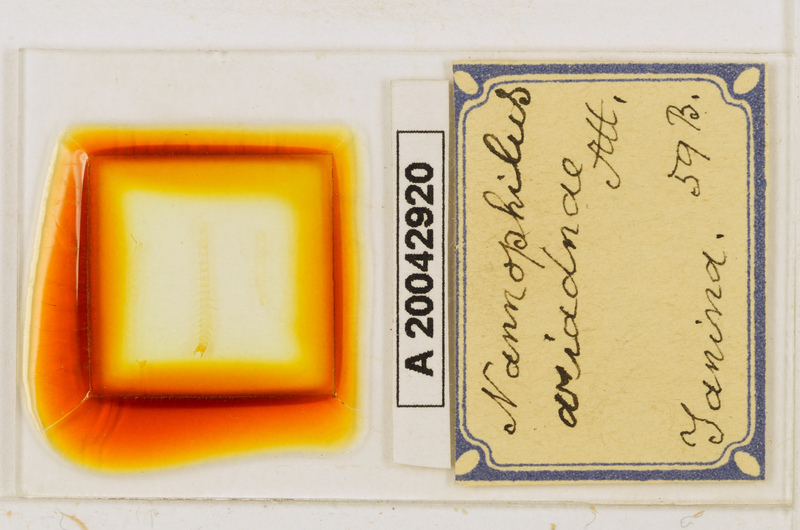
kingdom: Animalia
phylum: Arthropoda
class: Chilopoda
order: Geophilomorpha
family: Schendylidae
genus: Nannophilus
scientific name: Nannophilus ariadnae
